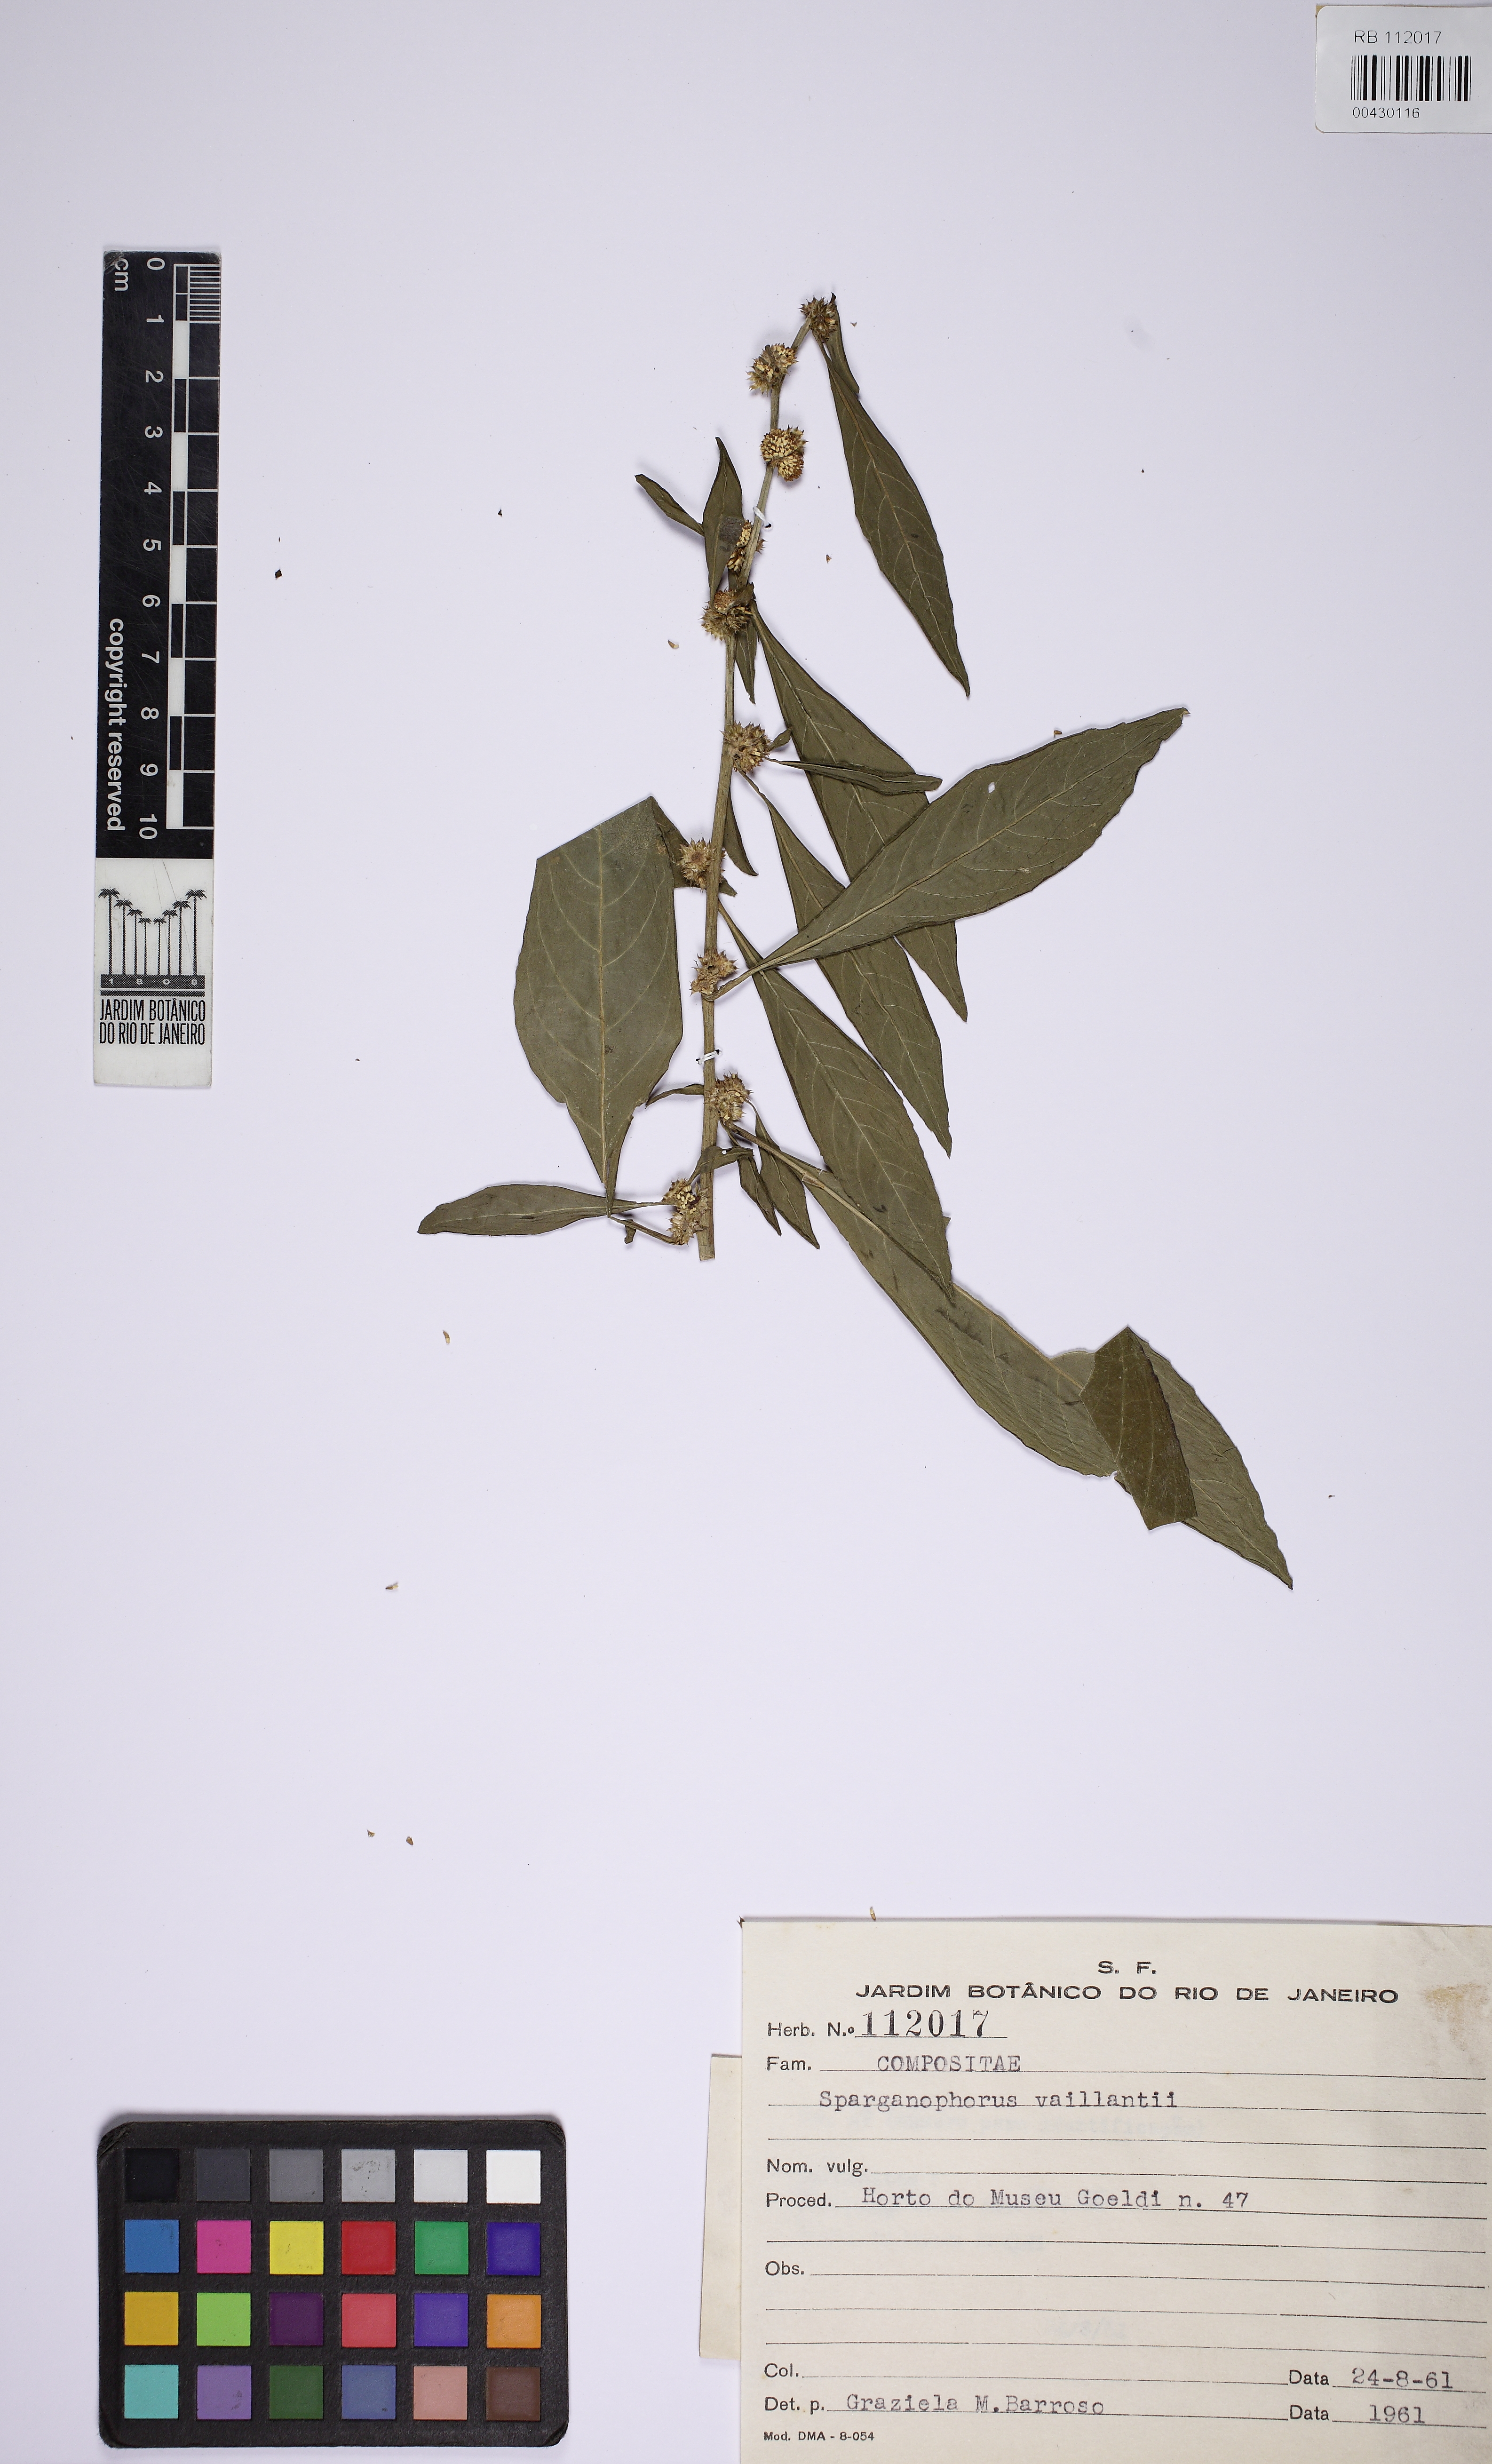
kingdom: Plantae
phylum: Tracheophyta
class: Magnoliopsida
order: Asterales
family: Asteraceae
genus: Struchium
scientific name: Struchium sparganophorum
